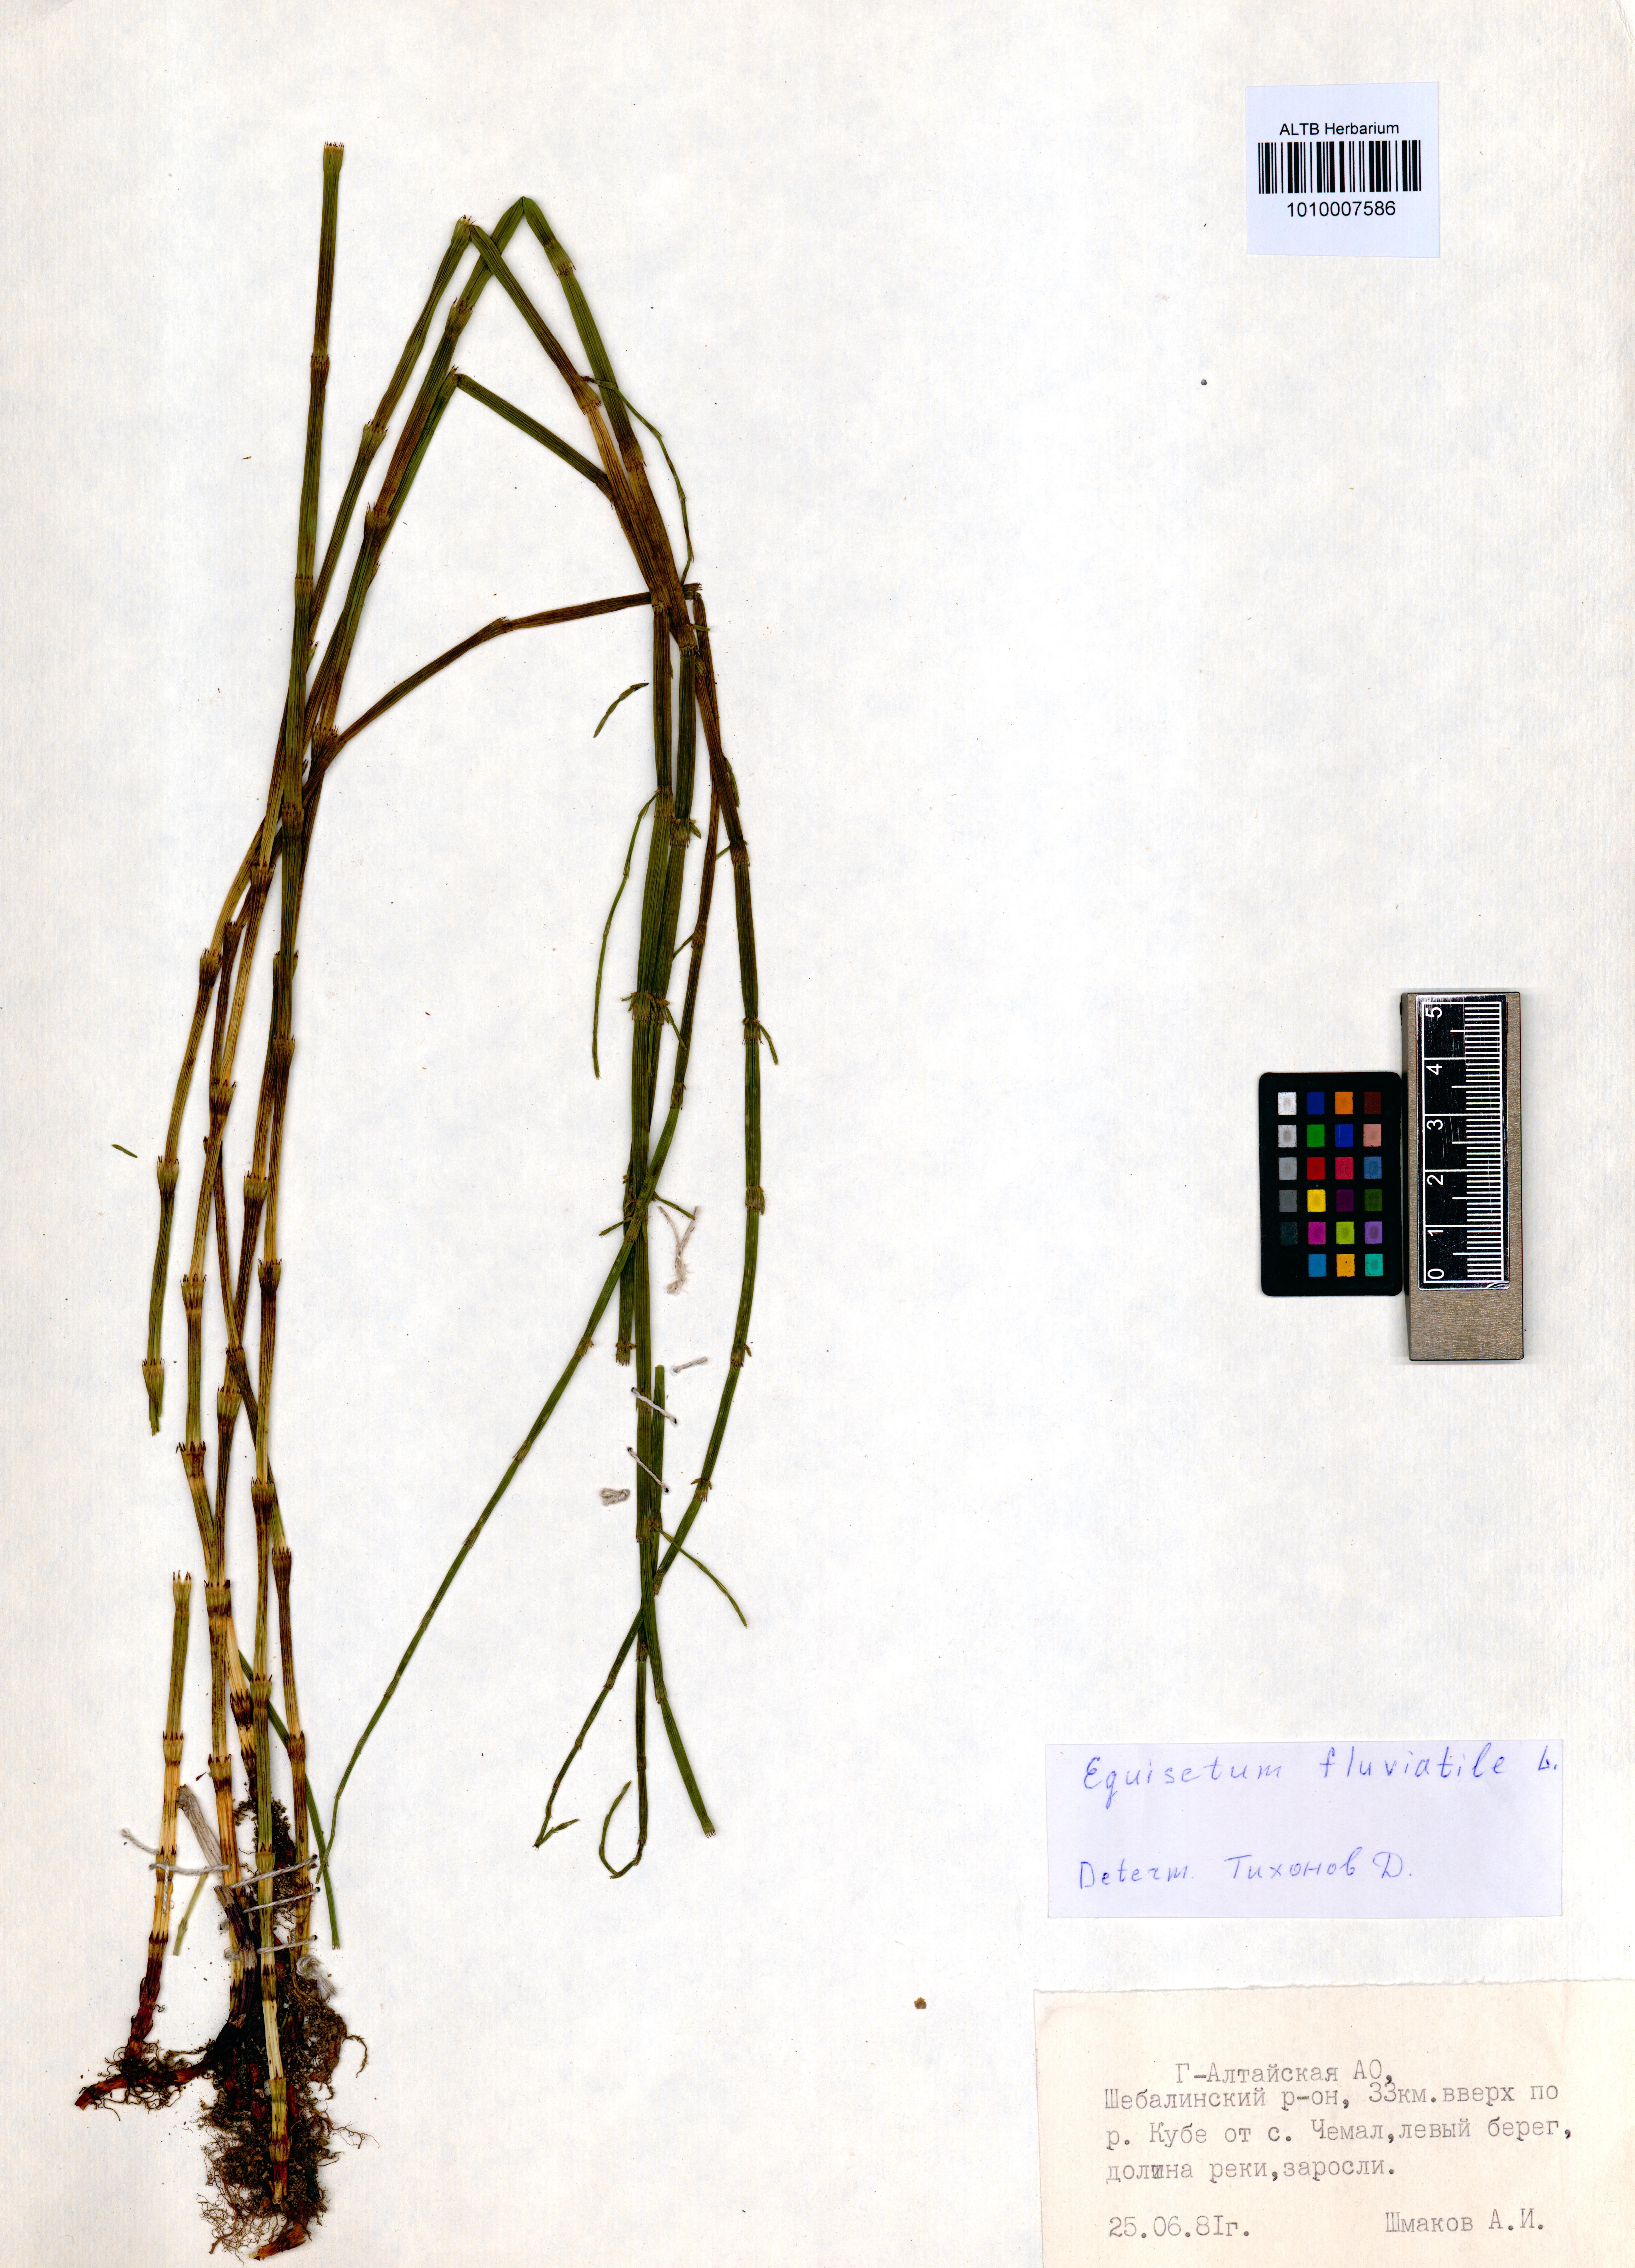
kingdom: Plantae
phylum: Tracheophyta
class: Polypodiopsida
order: Equisetales
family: Equisetaceae
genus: Equisetum
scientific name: Equisetum fluviatile
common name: Water horsetail
